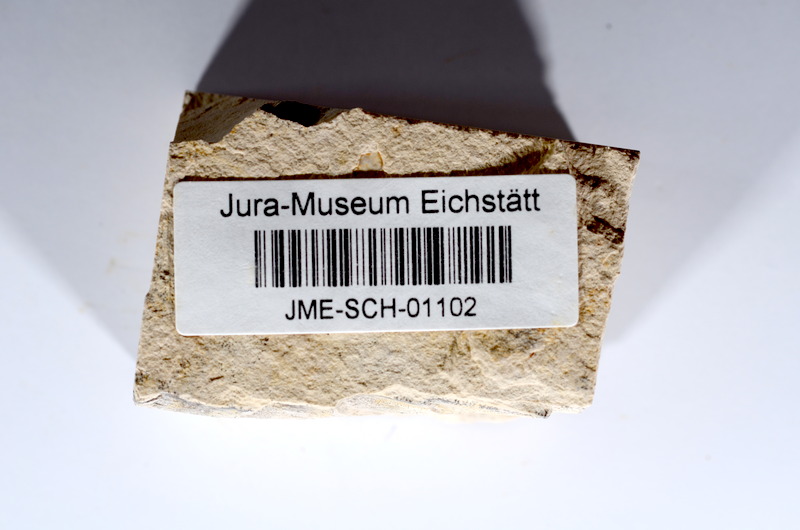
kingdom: Animalia
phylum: Chordata
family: Ascalaboidae
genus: Tharsis
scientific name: Tharsis dubius
